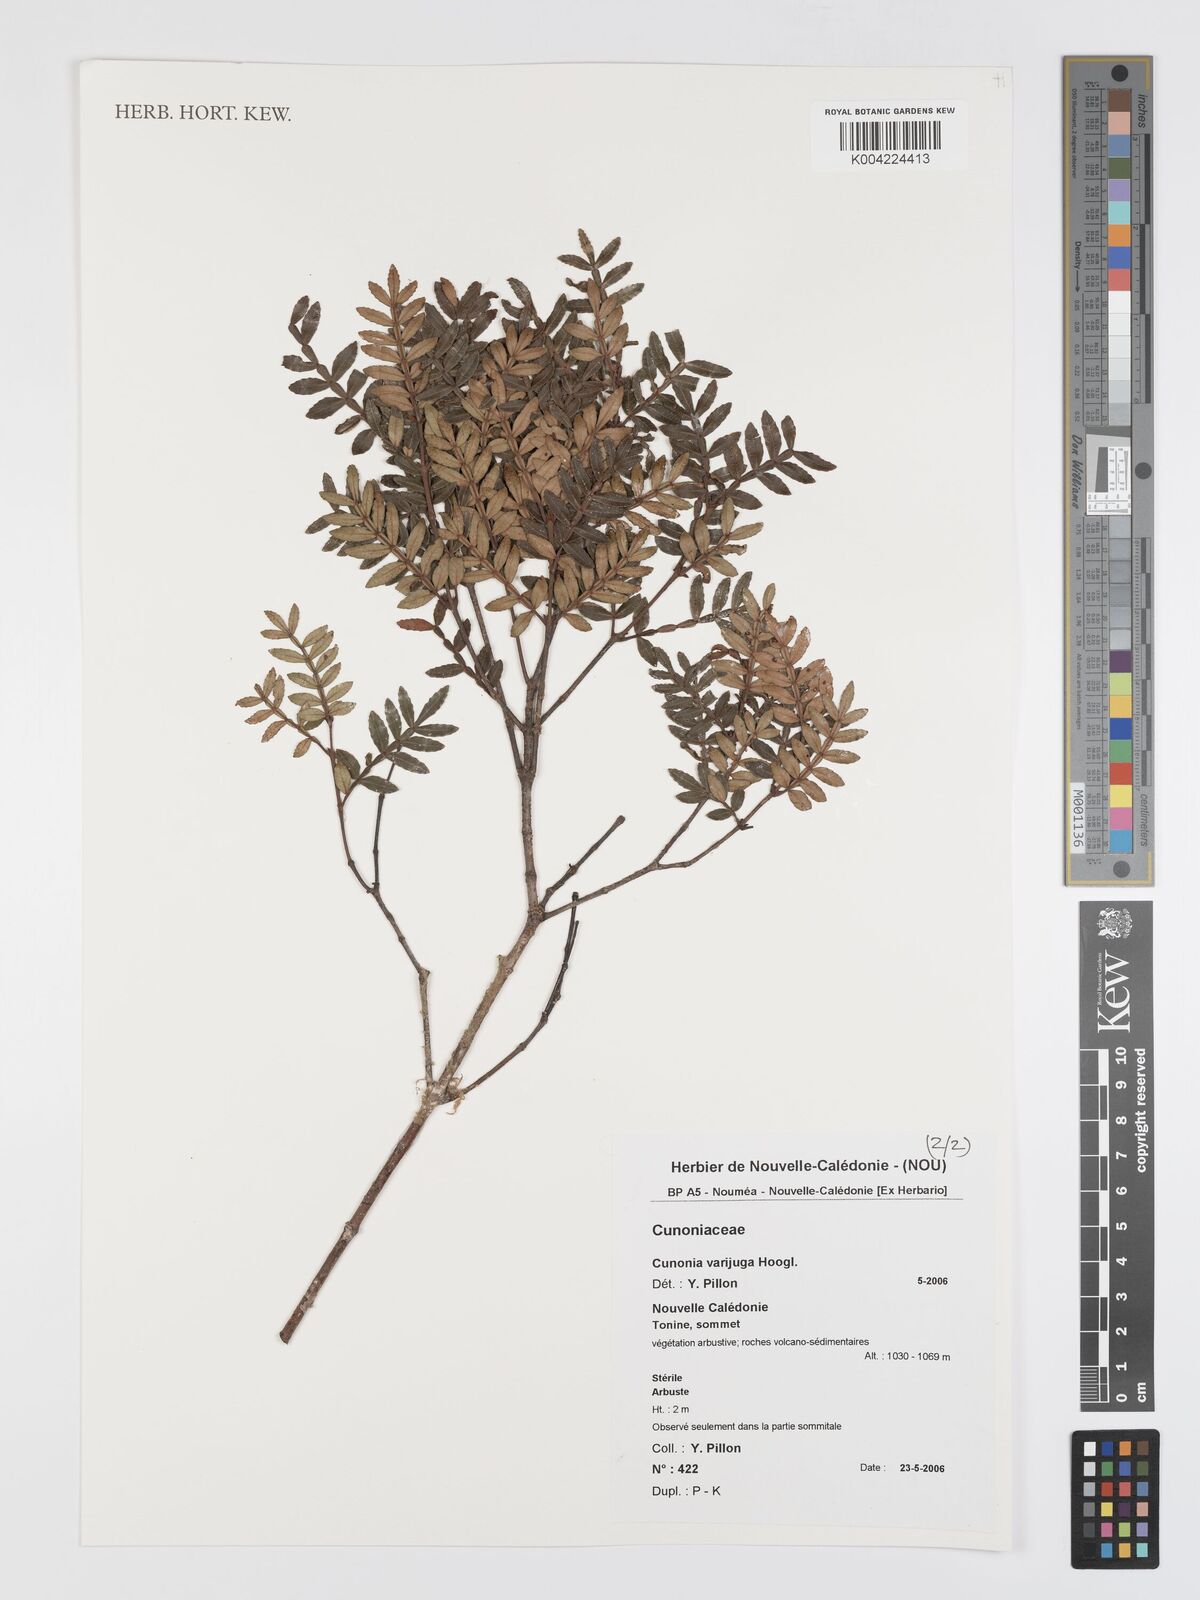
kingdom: Plantae
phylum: Tracheophyta
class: Magnoliopsida
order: Oxalidales
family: Cunoniaceae
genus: Cunonia
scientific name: Cunonia varijuga
